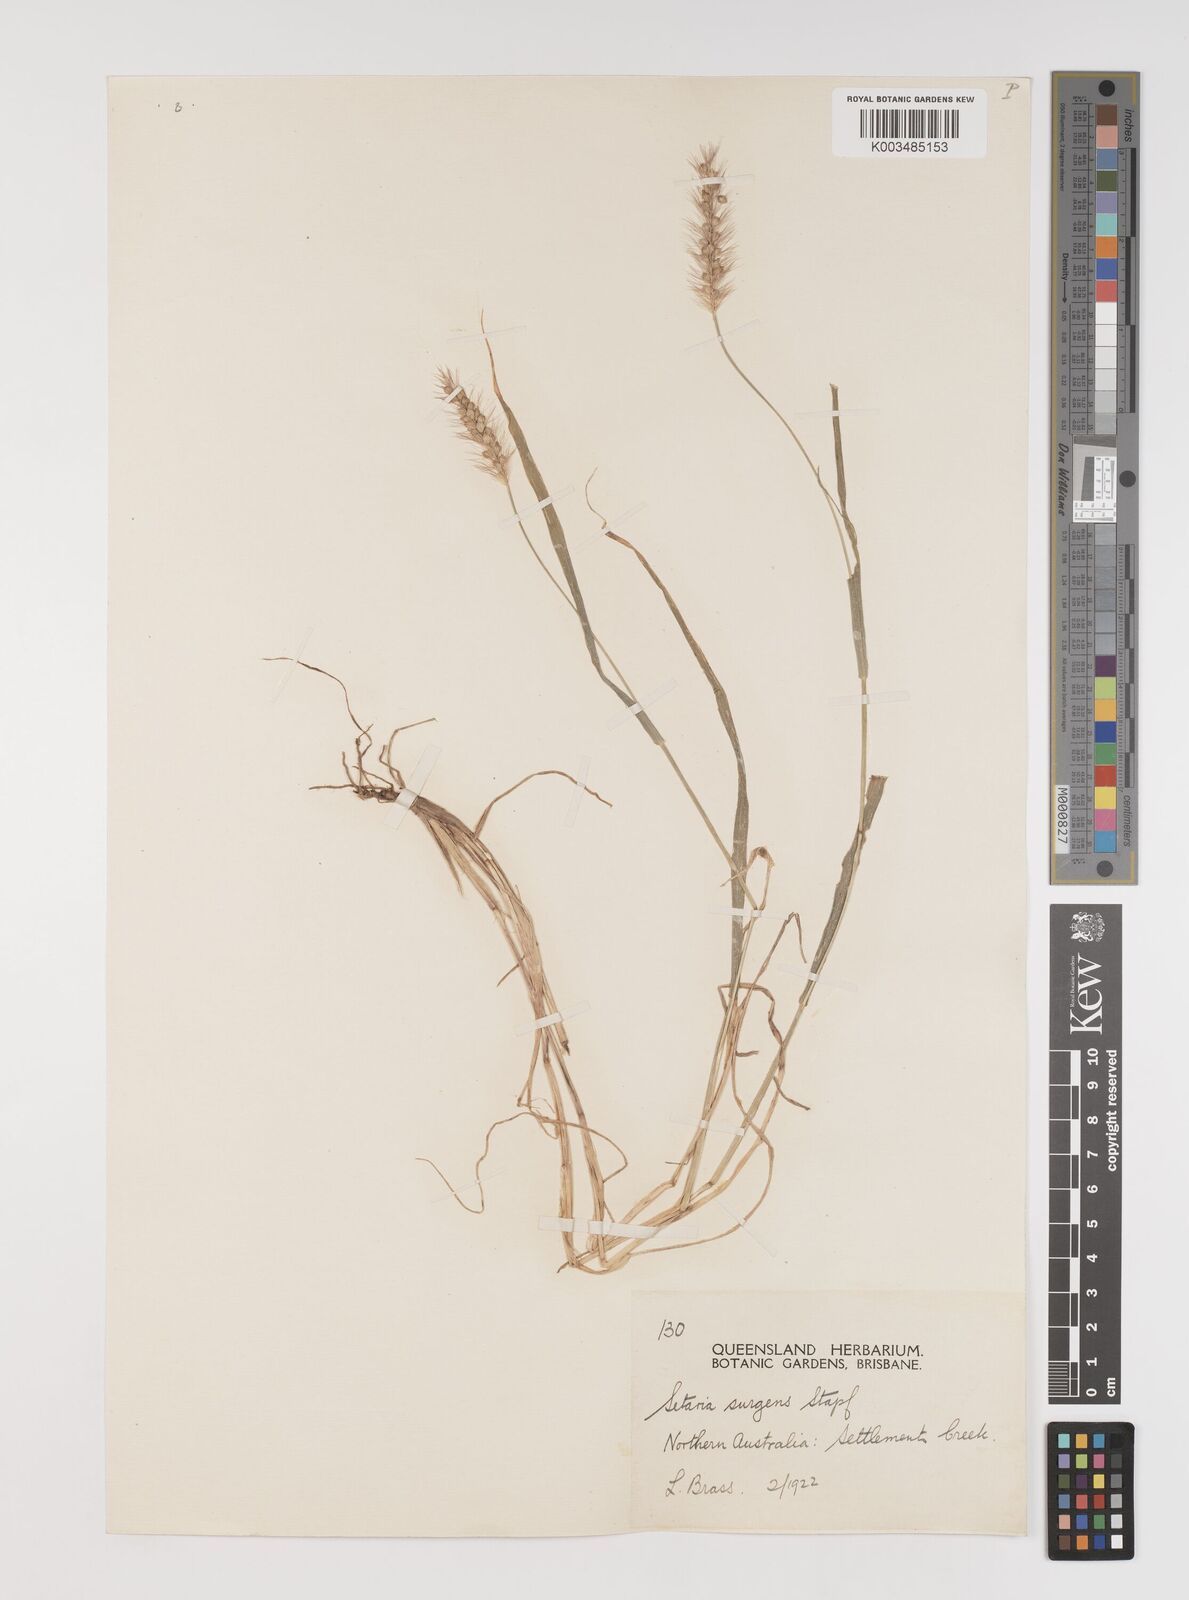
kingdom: Plantae
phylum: Tracheophyta
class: Liliopsida
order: Poales
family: Poaceae
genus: Setaria
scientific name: Setaria apiculata
